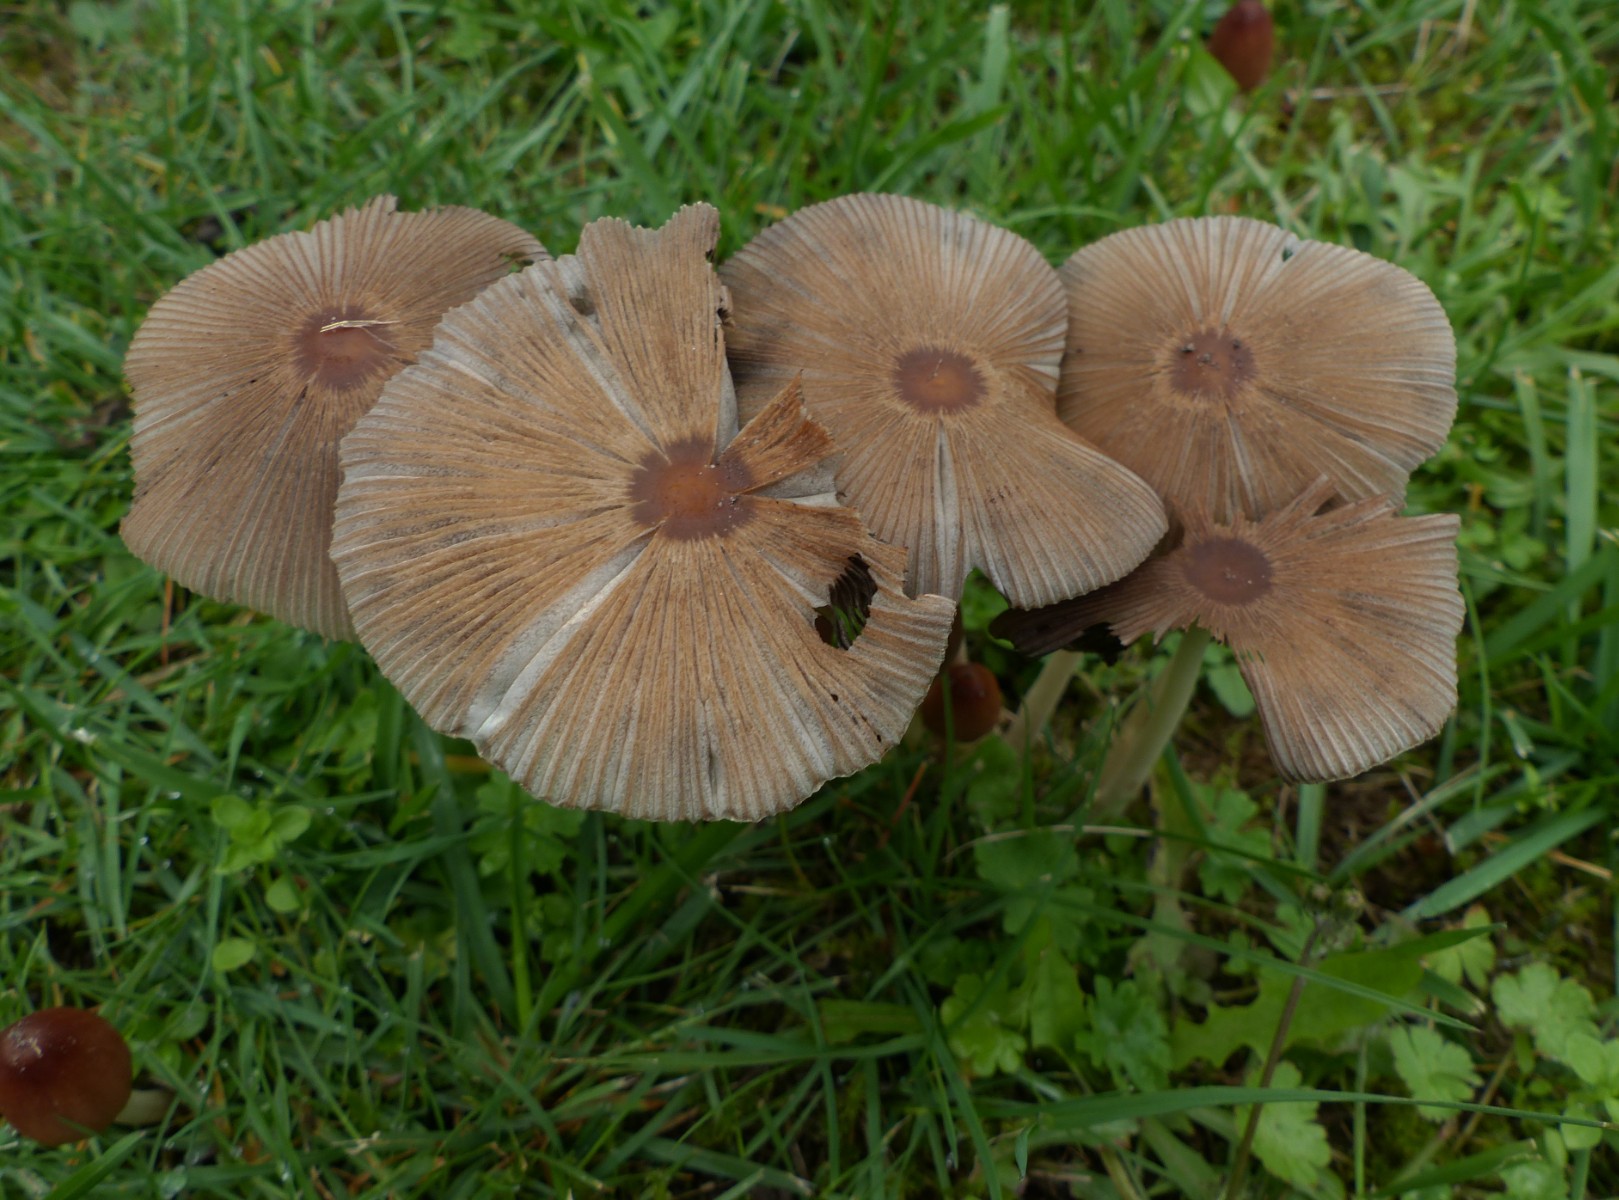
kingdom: Fungi
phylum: Basidiomycota
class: Agaricomycetes
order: Agaricales
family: Psathyrellaceae
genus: Parasola
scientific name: Parasola auricoma
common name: hansens hjulhat
